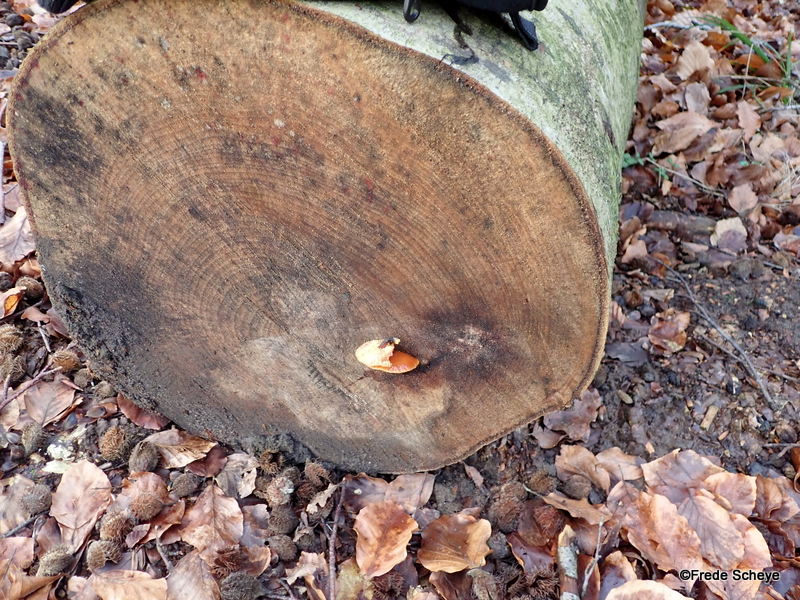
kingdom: Fungi
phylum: Basidiomycota
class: Agaricomycetes
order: Agaricales
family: Physalacriaceae
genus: Flammulina
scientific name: Flammulina velutipes
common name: gul fløjlsfod
